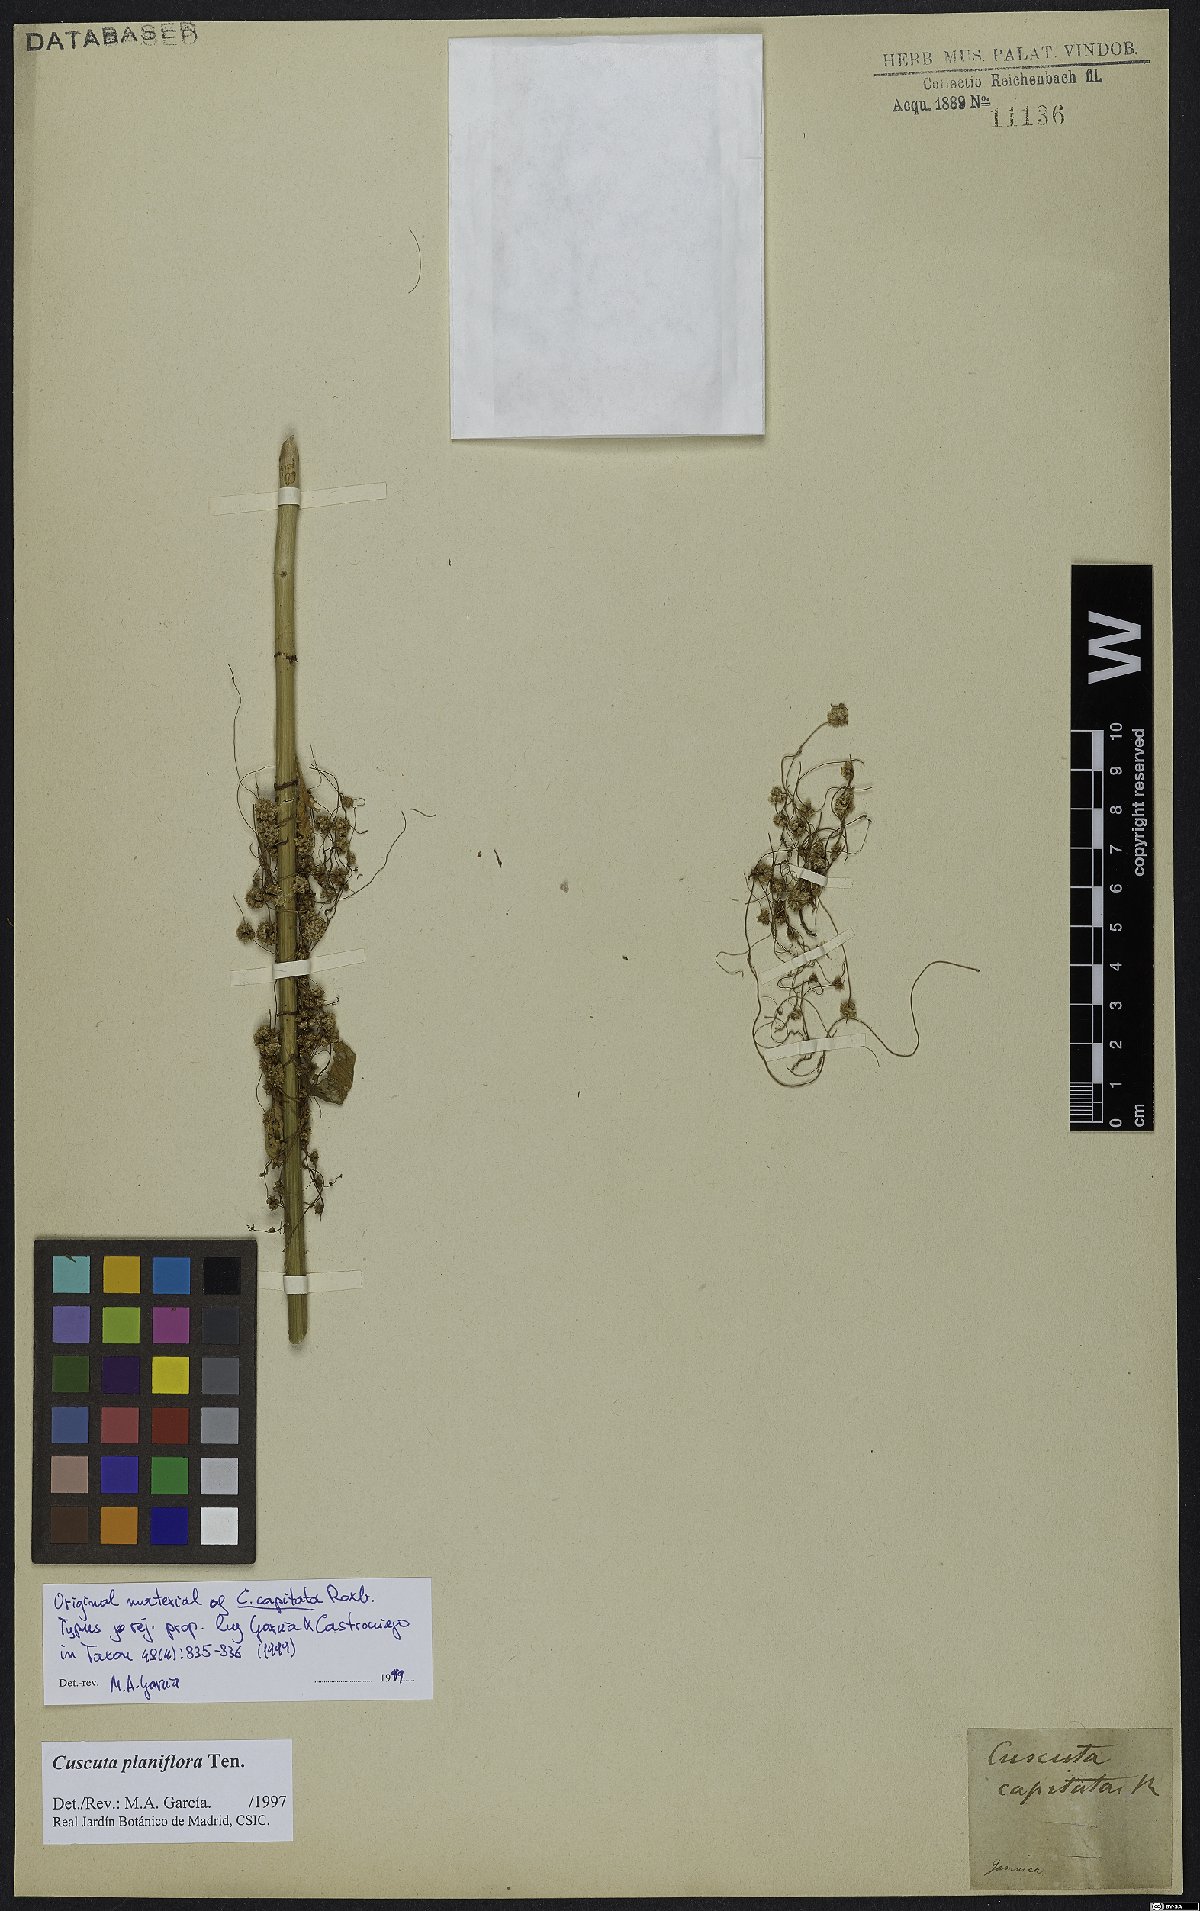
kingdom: Plantae
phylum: Tracheophyta
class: Magnoliopsida
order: Solanales
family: Convolvulaceae
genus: Cuscuta
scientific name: Cuscuta capitata
